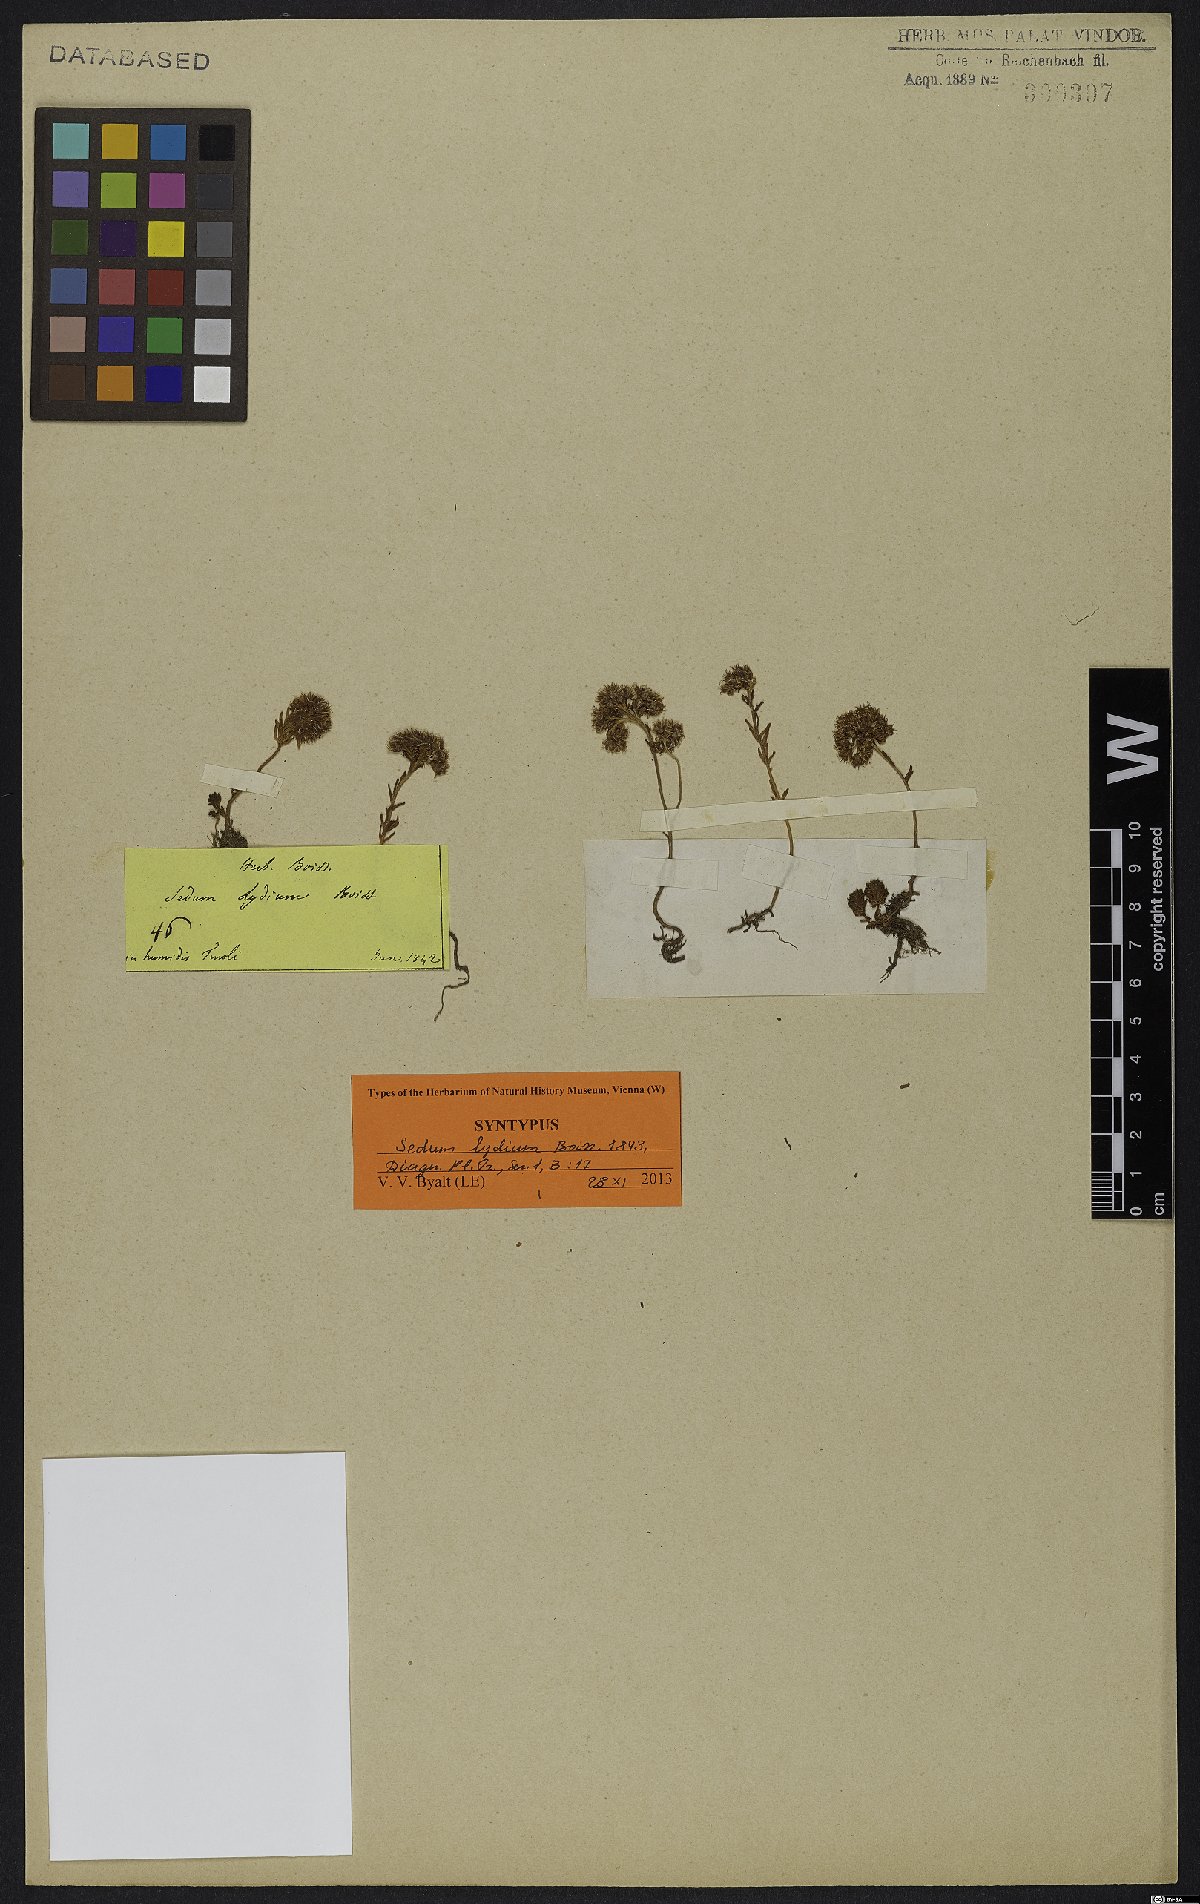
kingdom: Plantae
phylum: Tracheophyta
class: Magnoliopsida
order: Saxifragales
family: Crassulaceae
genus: Sedum
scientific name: Sedum lydium
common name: Least stonecrop
